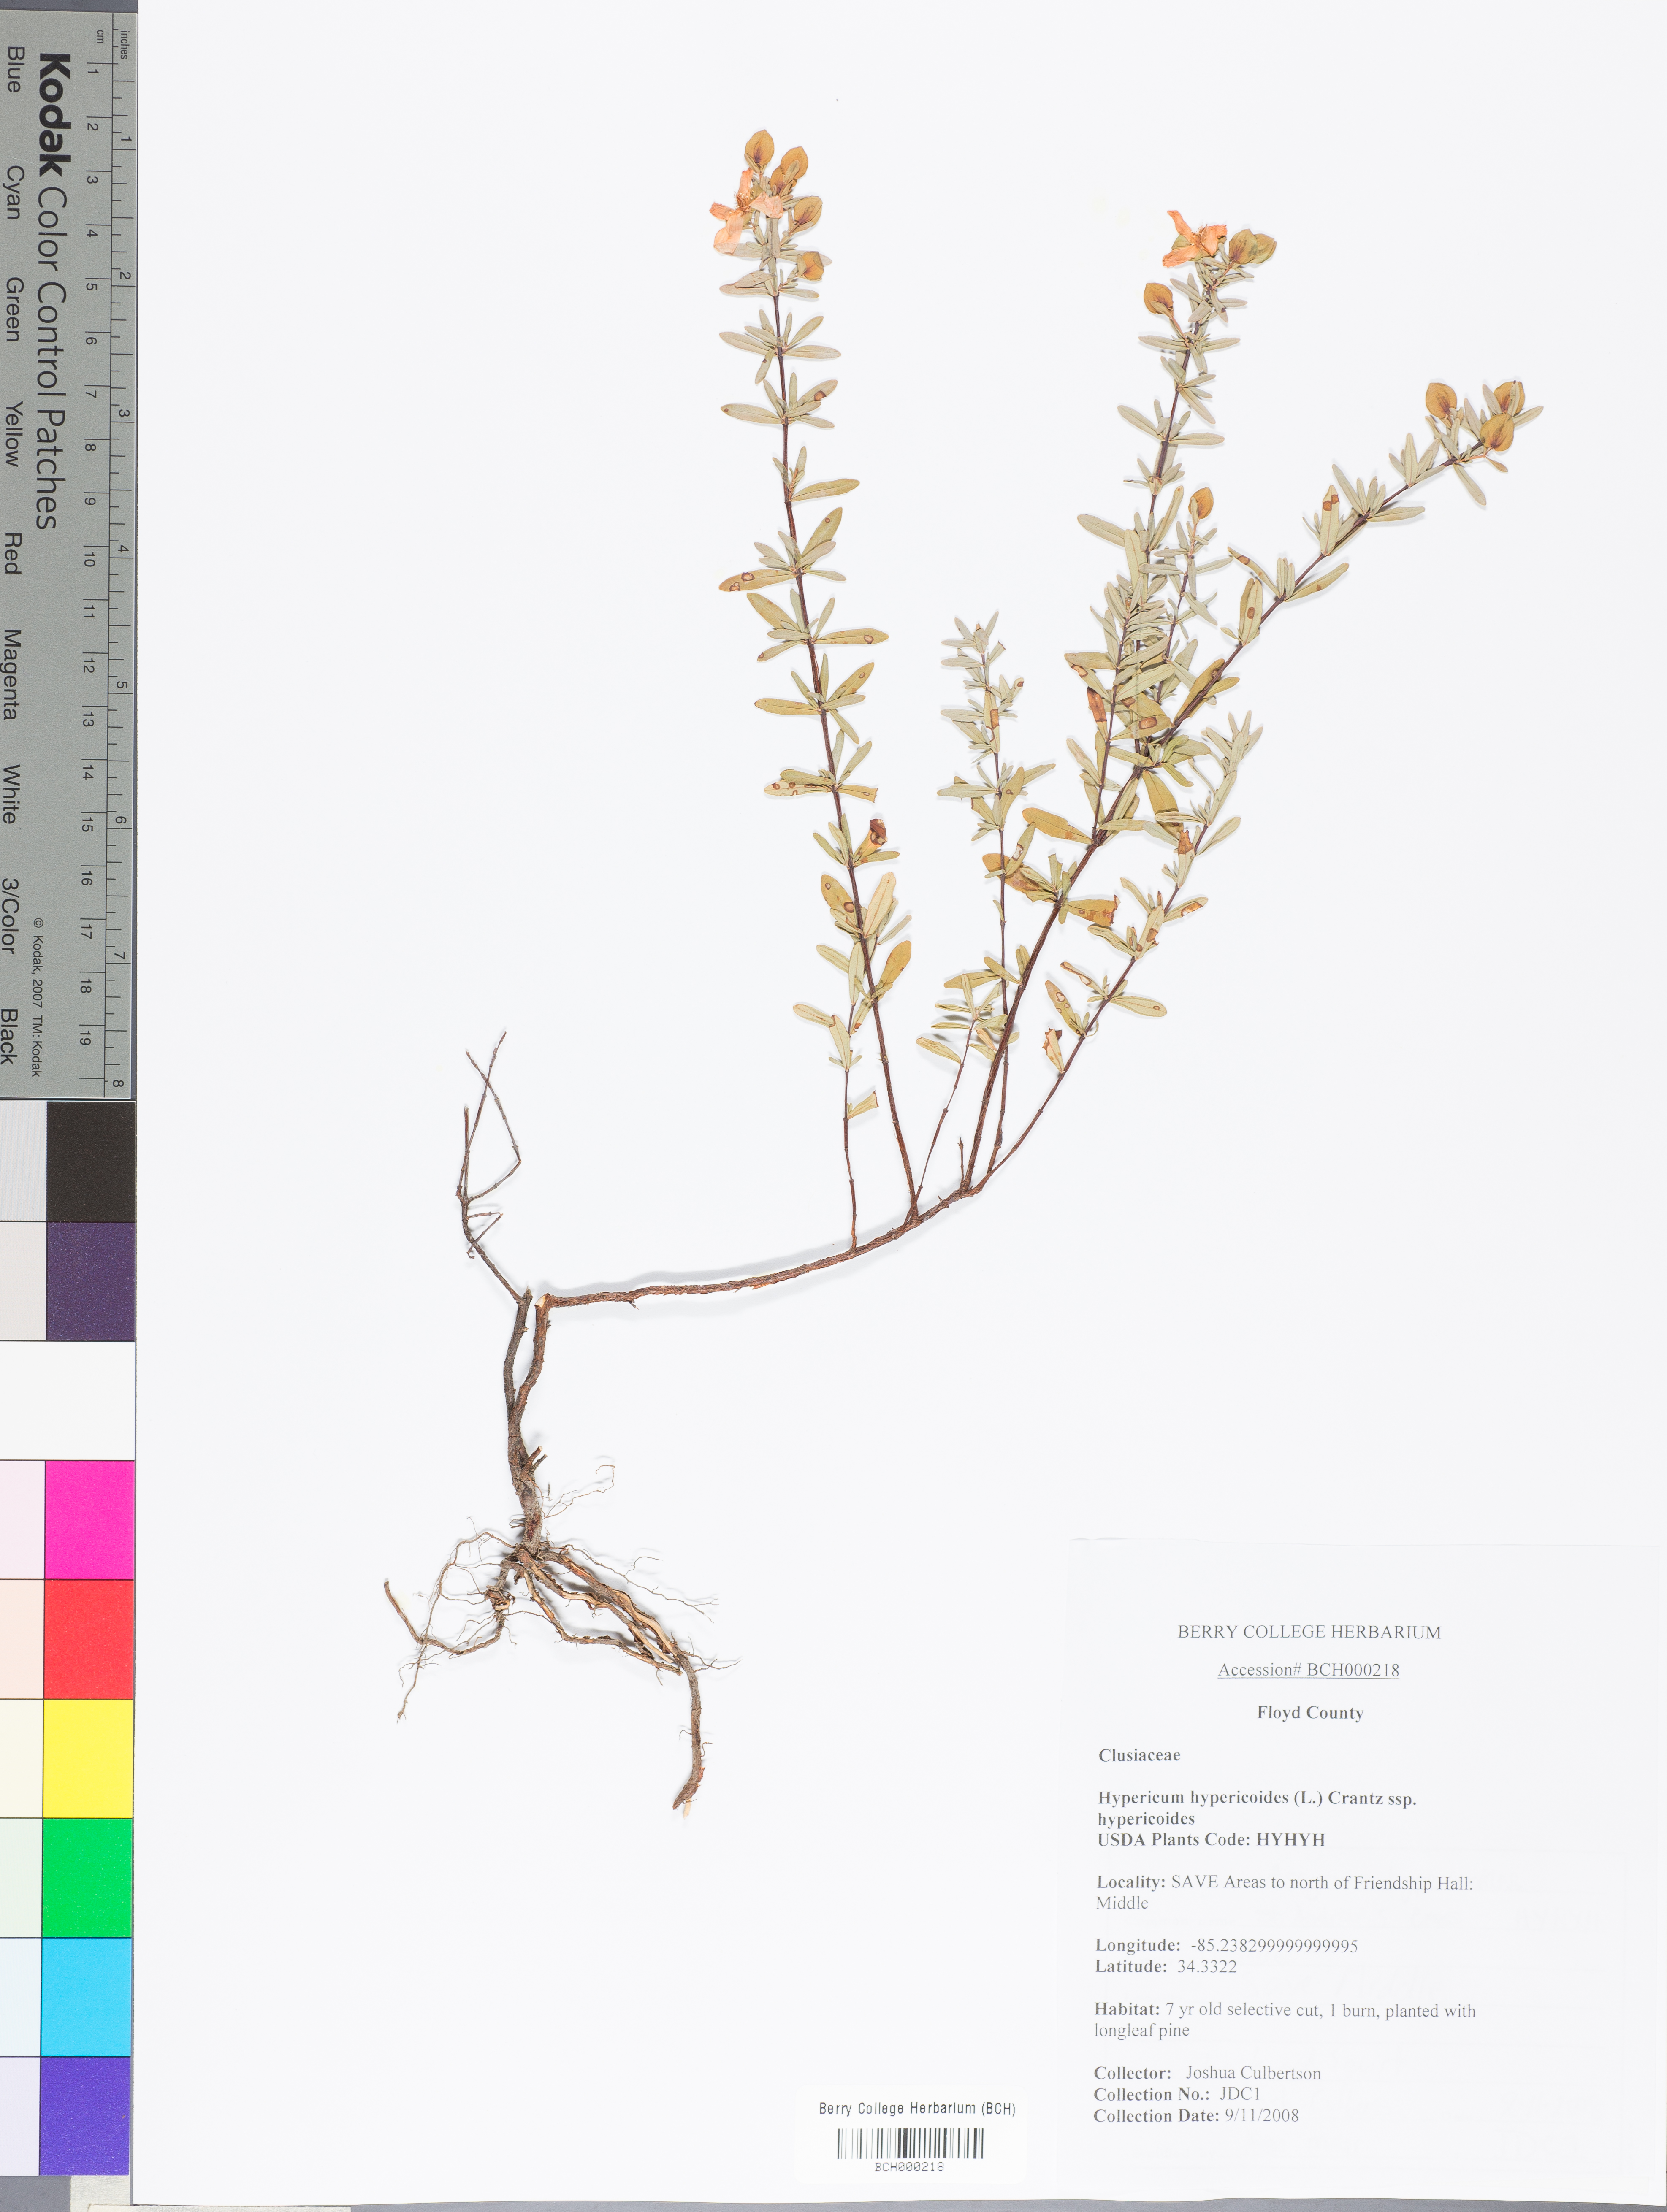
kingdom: Plantae
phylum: Tracheophyta
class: Magnoliopsida
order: Malpighiales
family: Hypericaceae
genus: Hypericum
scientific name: Hypericum hypericoides
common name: St. andrew's cross
